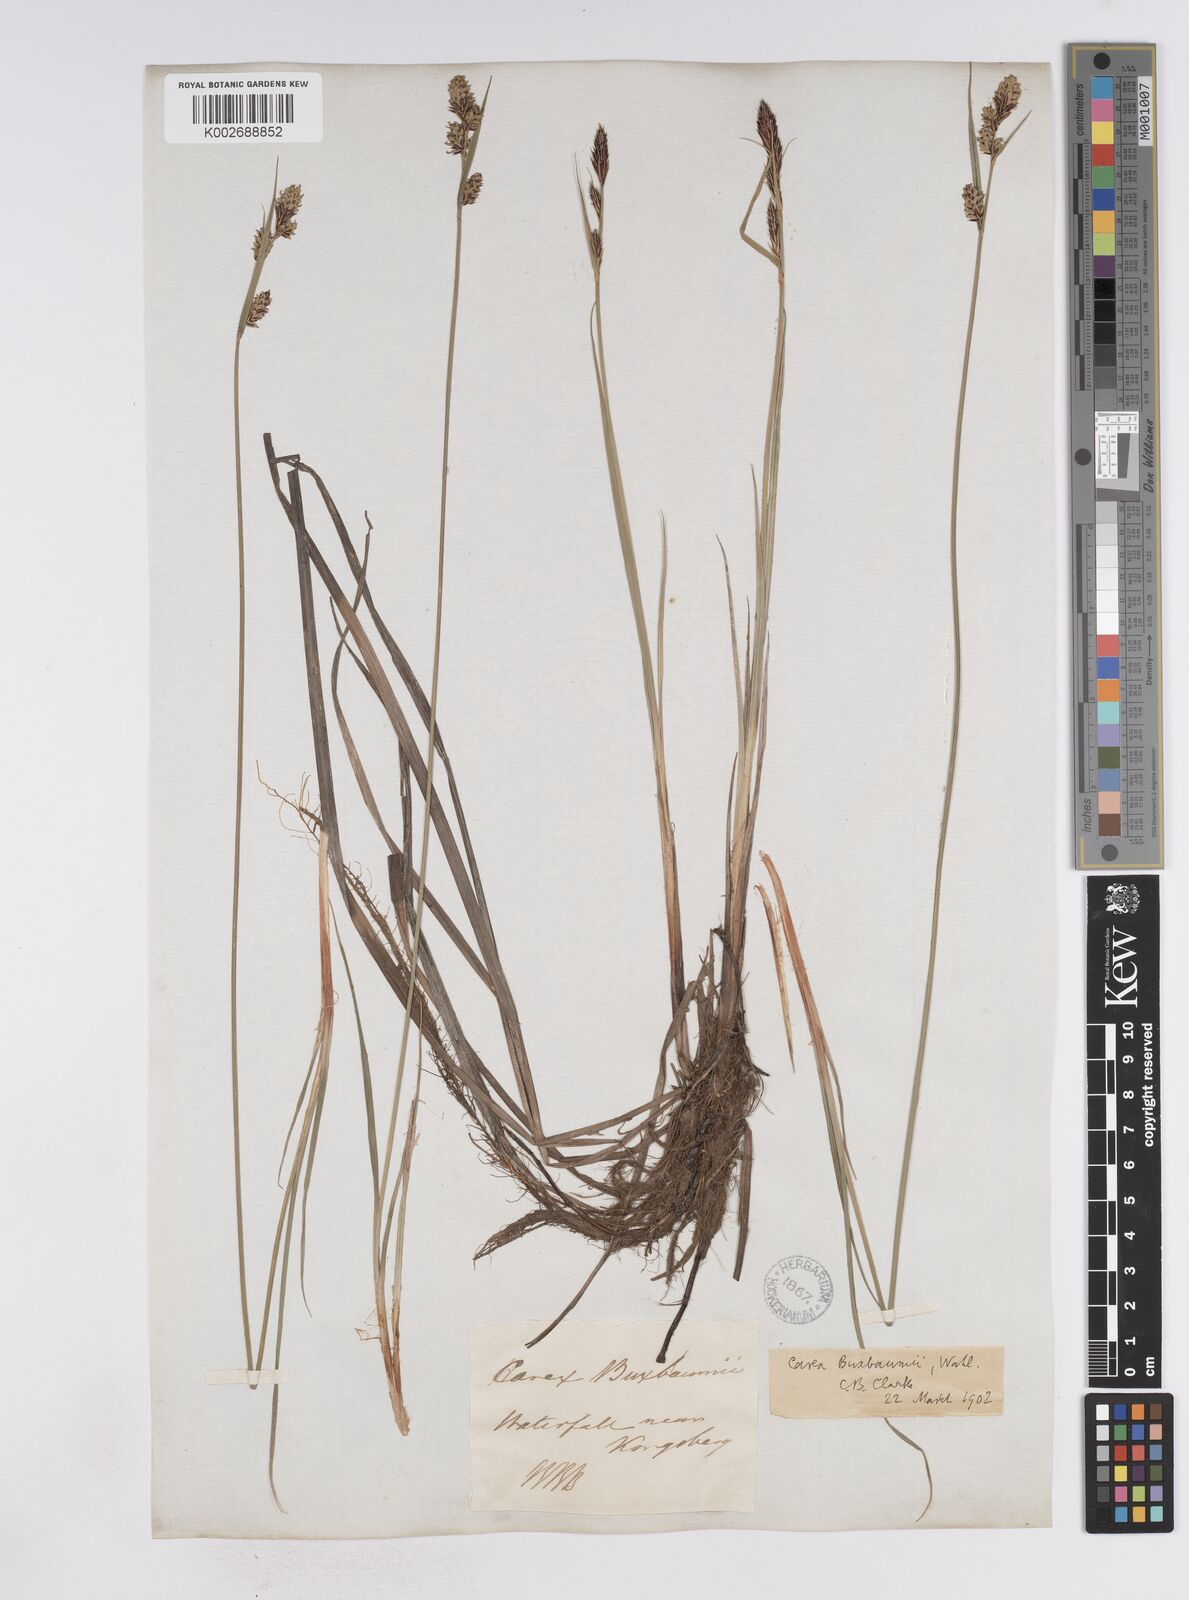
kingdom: Plantae
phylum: Tracheophyta
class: Liliopsida
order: Poales
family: Cyperaceae
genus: Carex
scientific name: Carex buxbaumii
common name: Club sedge
